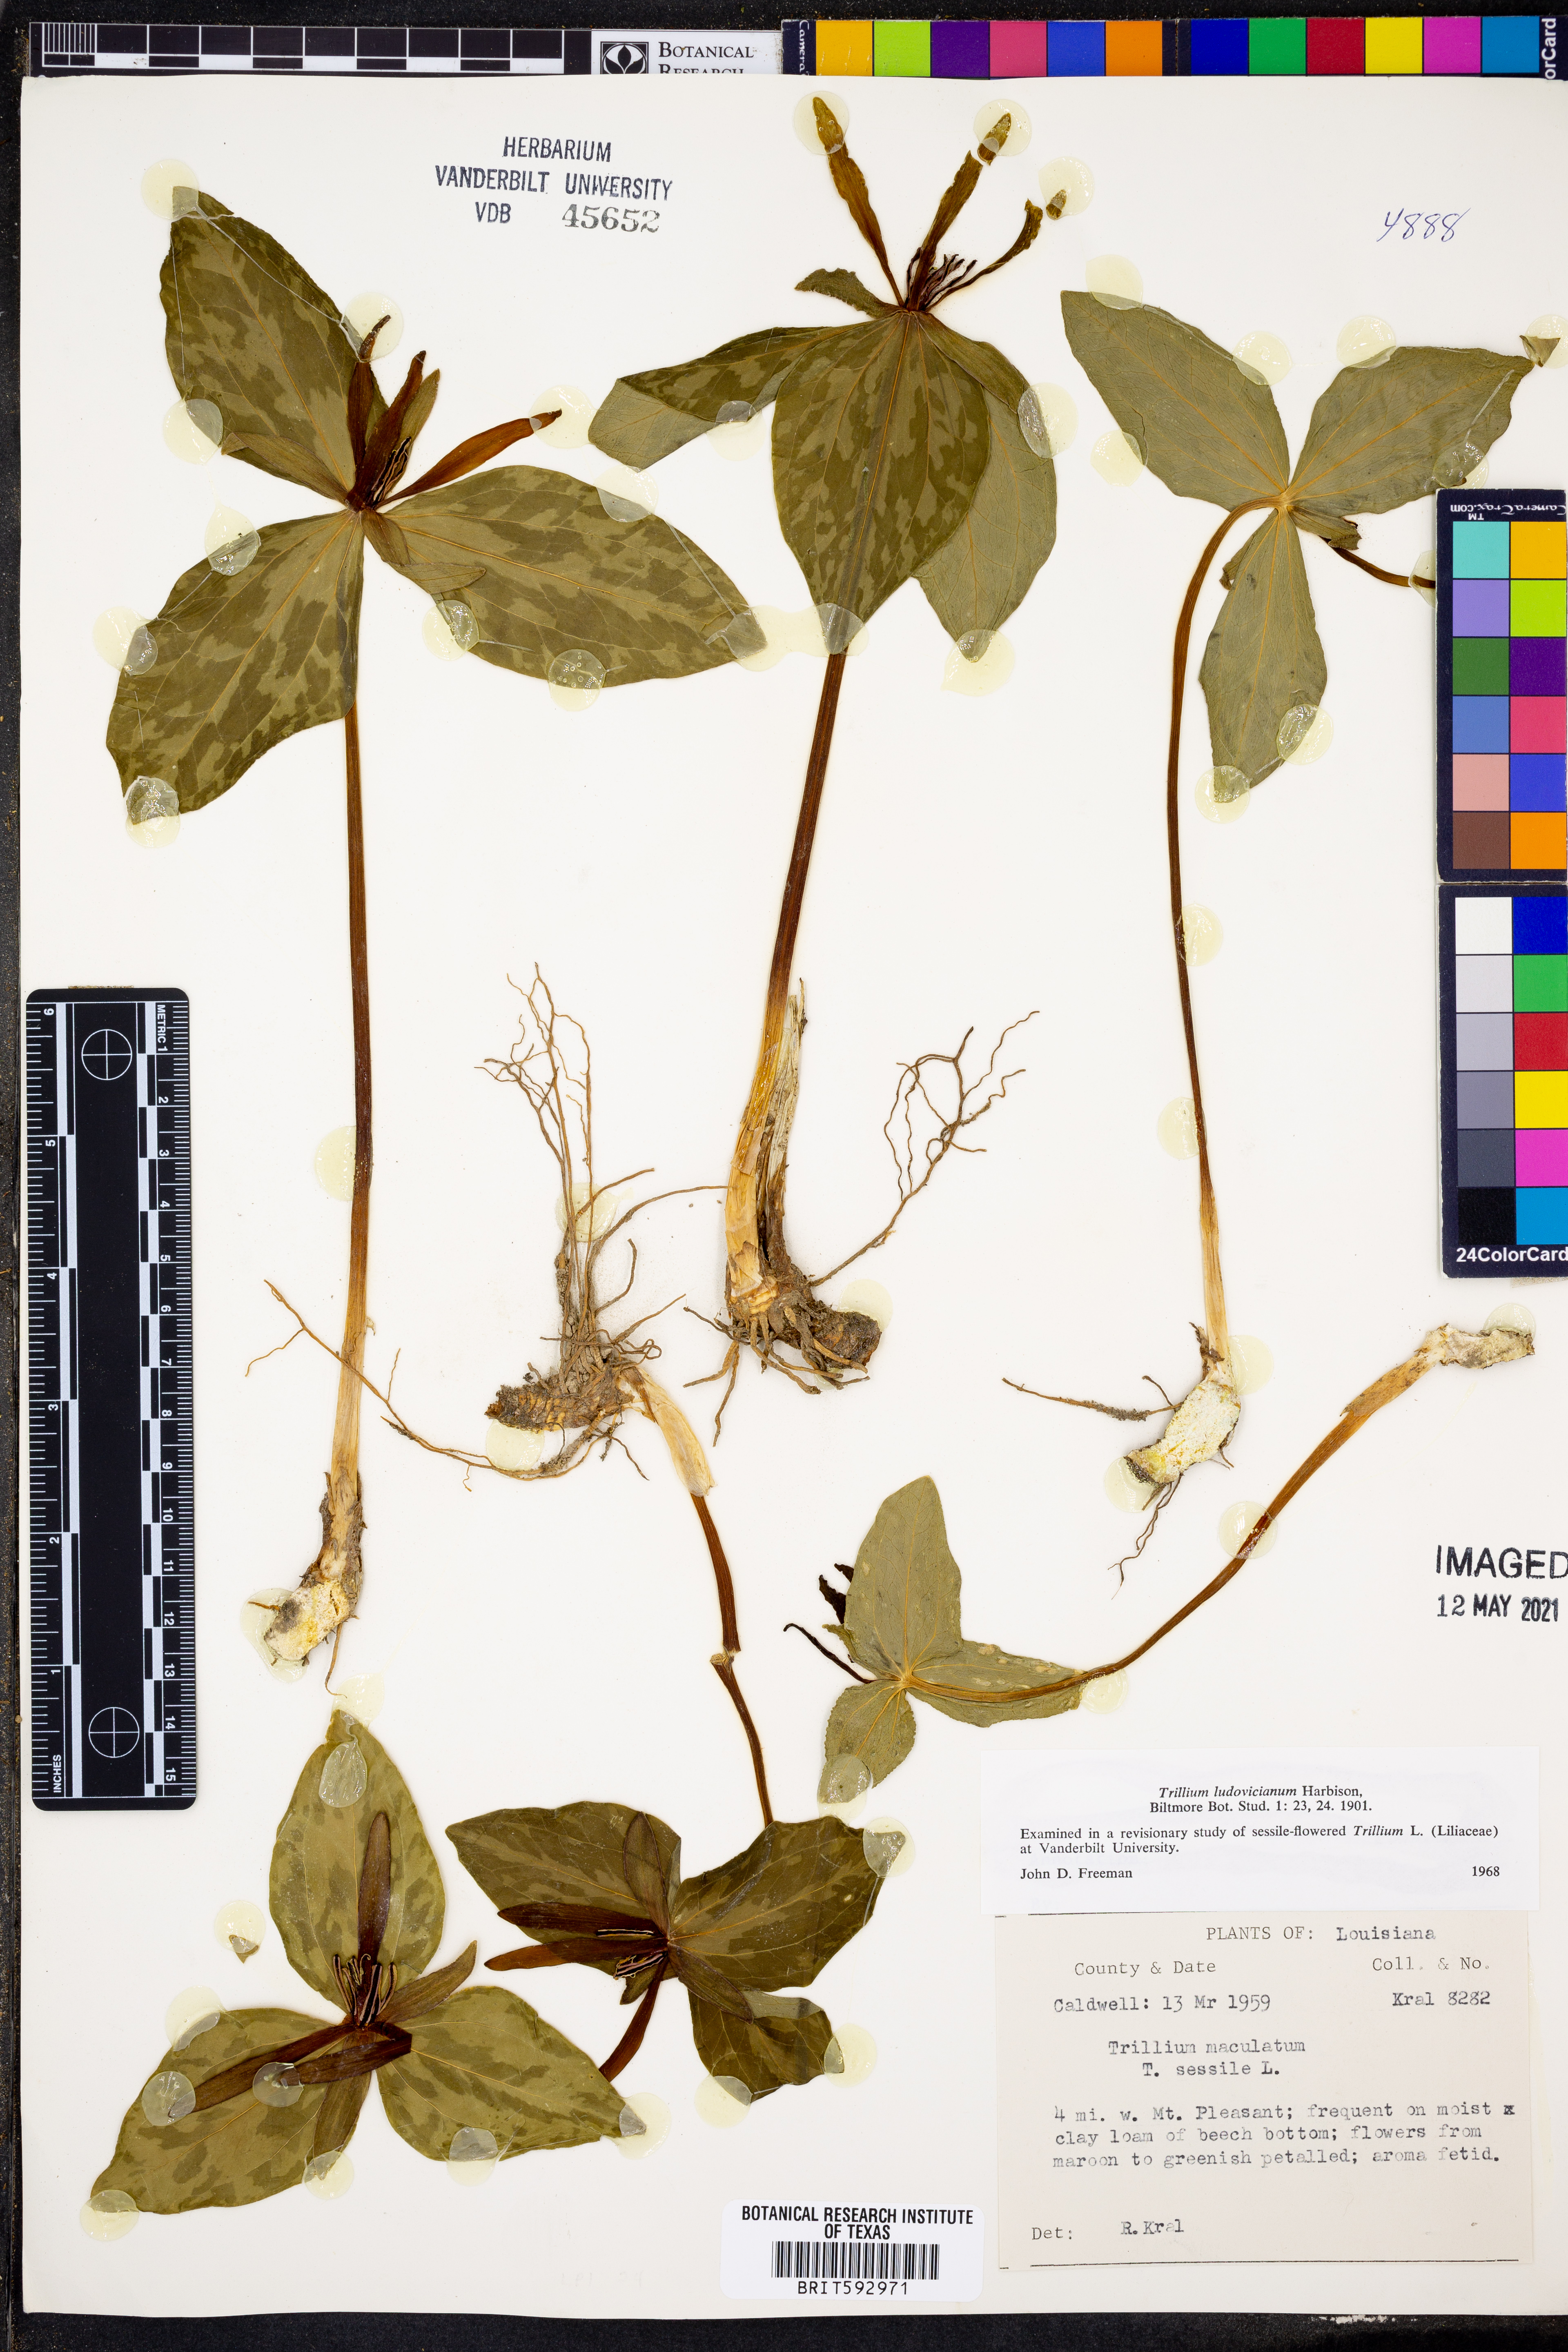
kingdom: Plantae
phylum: Tracheophyta
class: Liliopsida
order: Liliales
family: Melanthiaceae
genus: Trillium
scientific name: Trillium ludovicianum
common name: Louisiana toadshade
